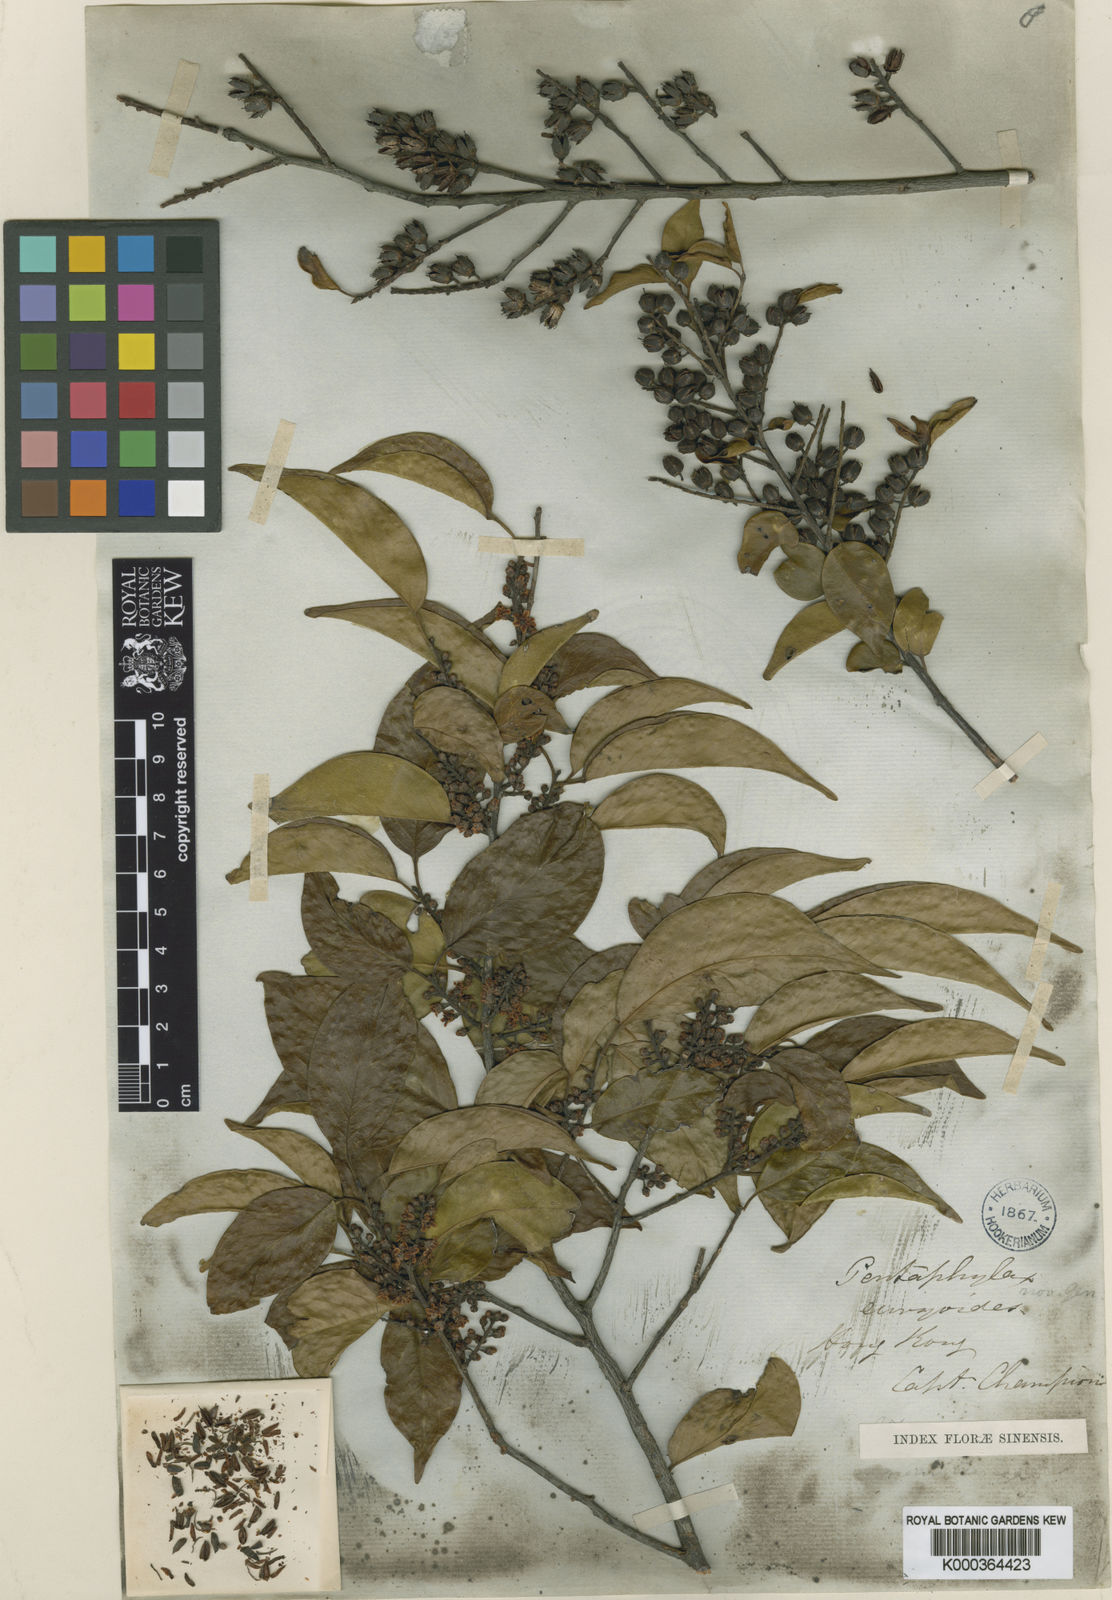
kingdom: Plantae
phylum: Tracheophyta
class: Magnoliopsida
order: Ericales
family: Pentaphylacaceae
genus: Pentaphylax
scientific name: Pentaphylax euryoides
